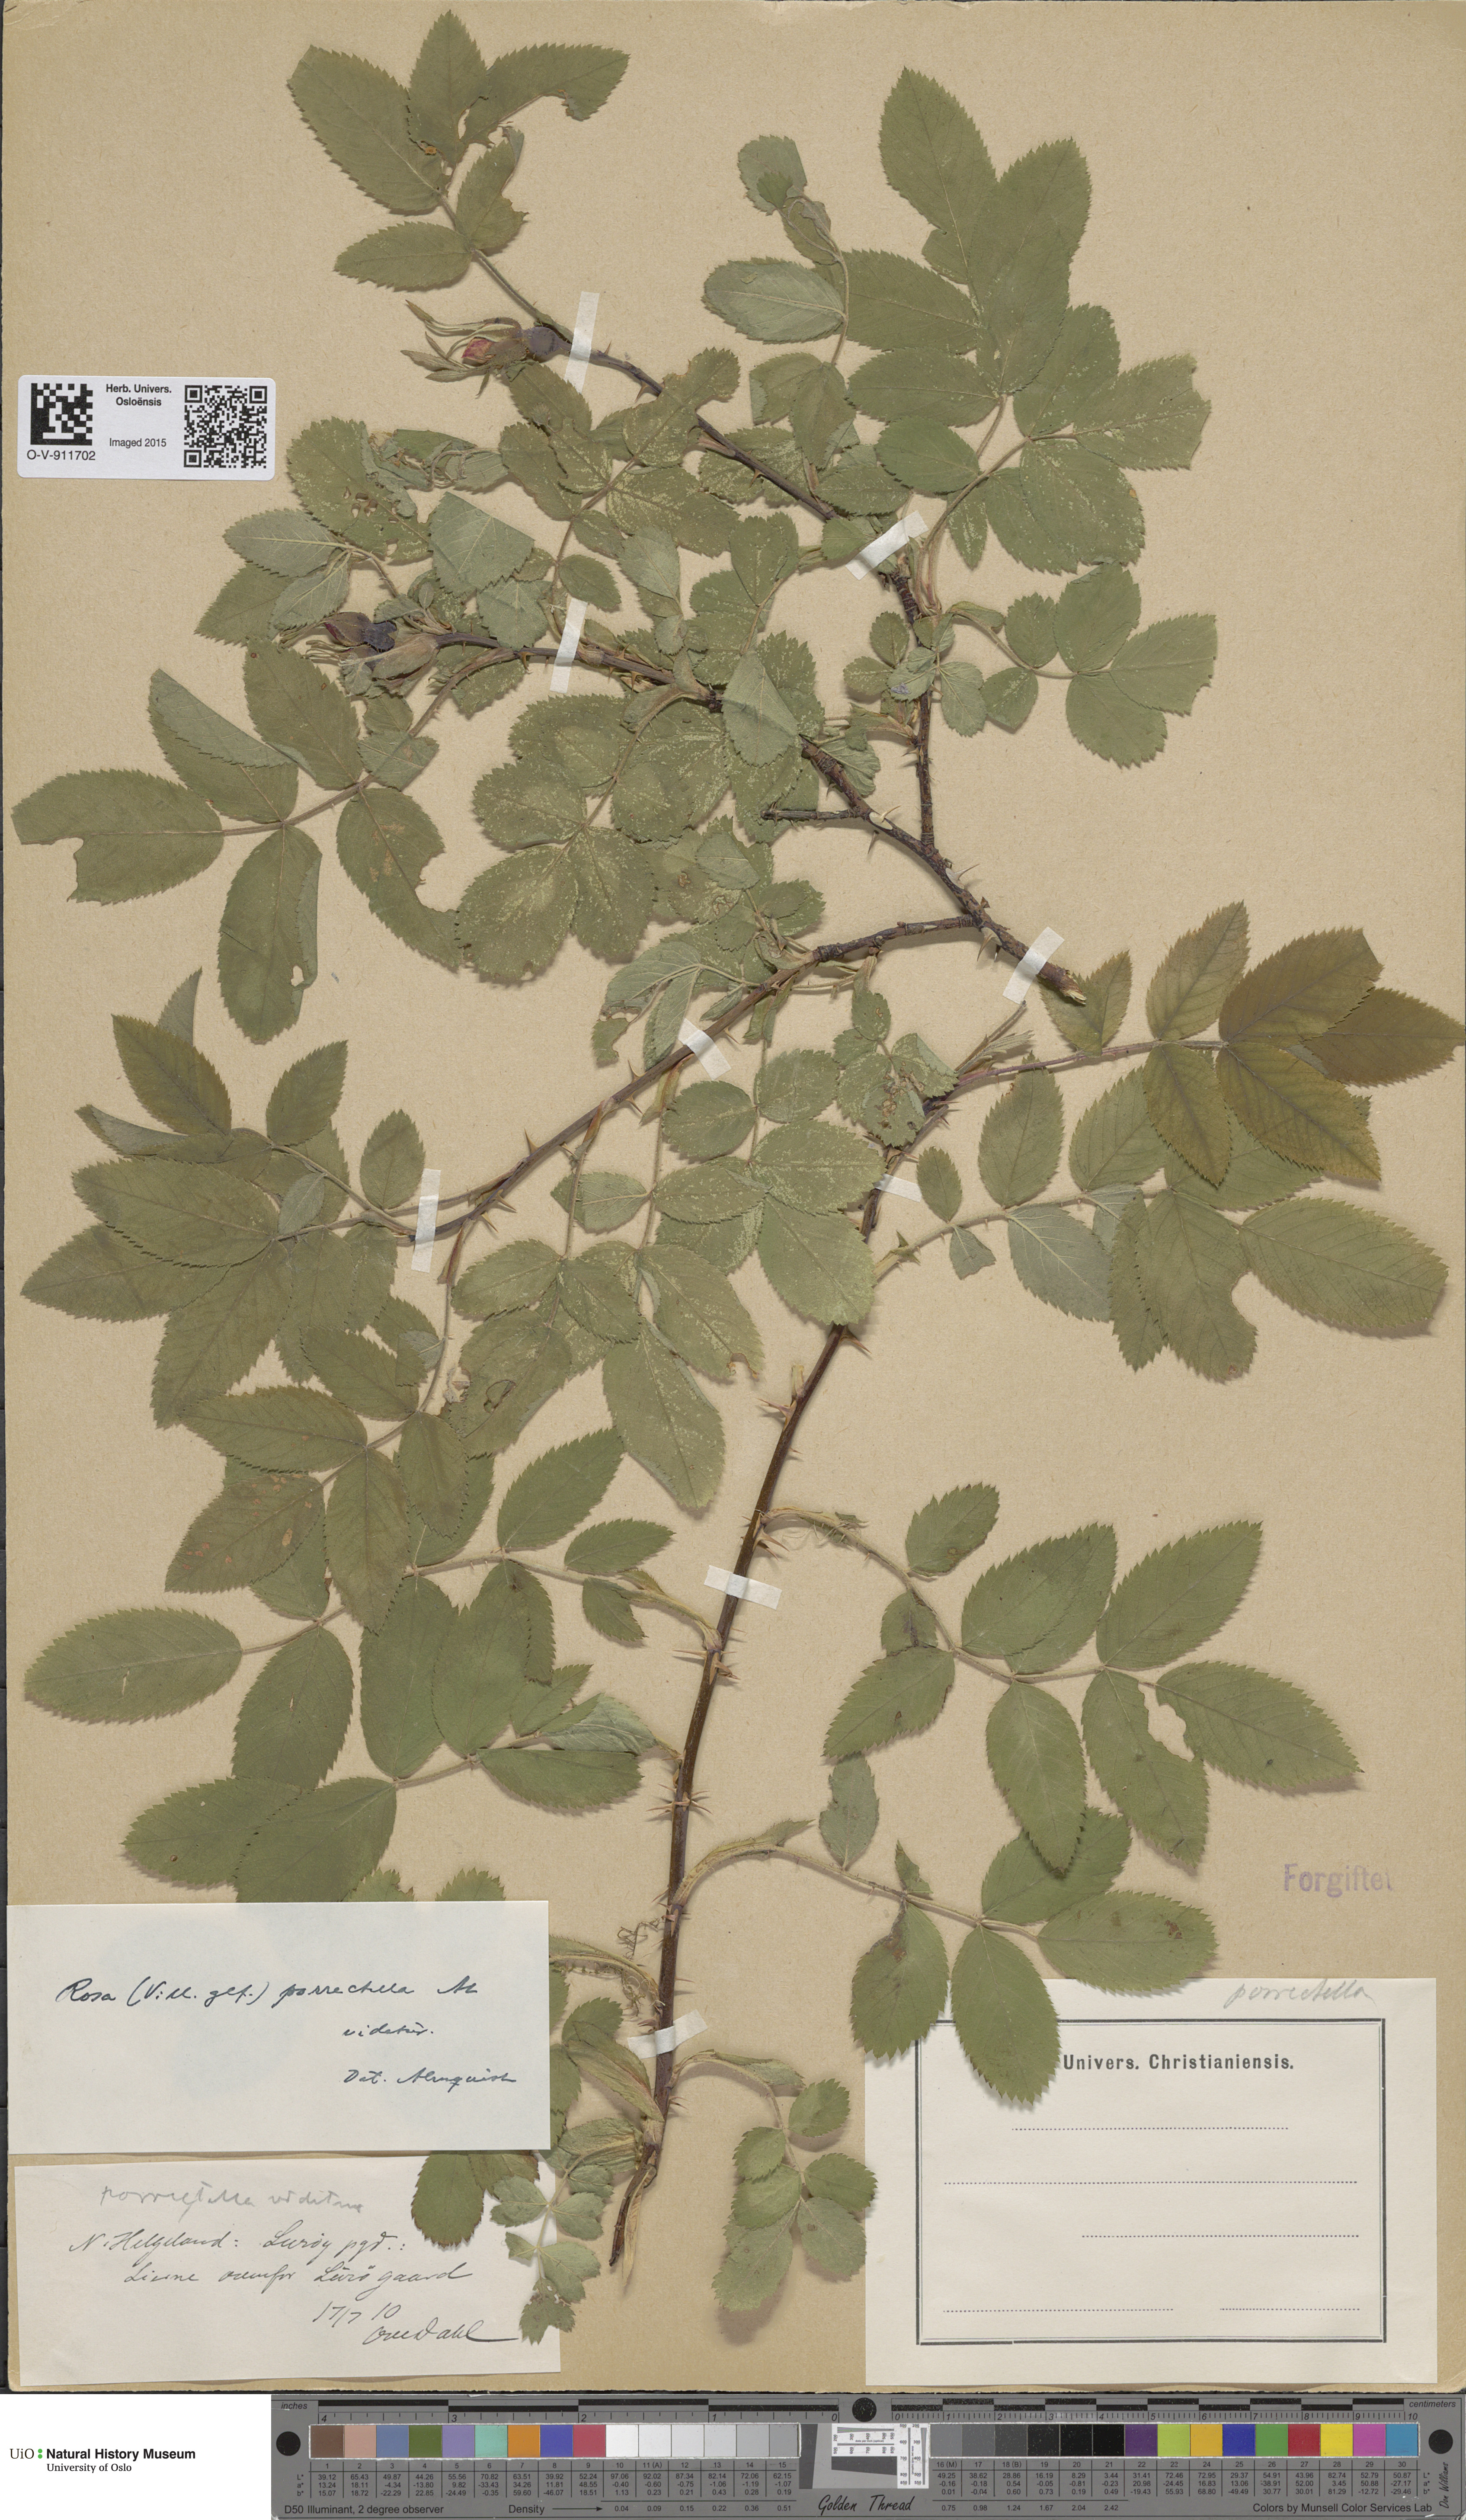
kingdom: Plantae
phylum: Tracheophyta
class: Magnoliopsida
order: Rosales
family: Rosaceae
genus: Rosa
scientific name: Rosa mollis
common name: Rose
